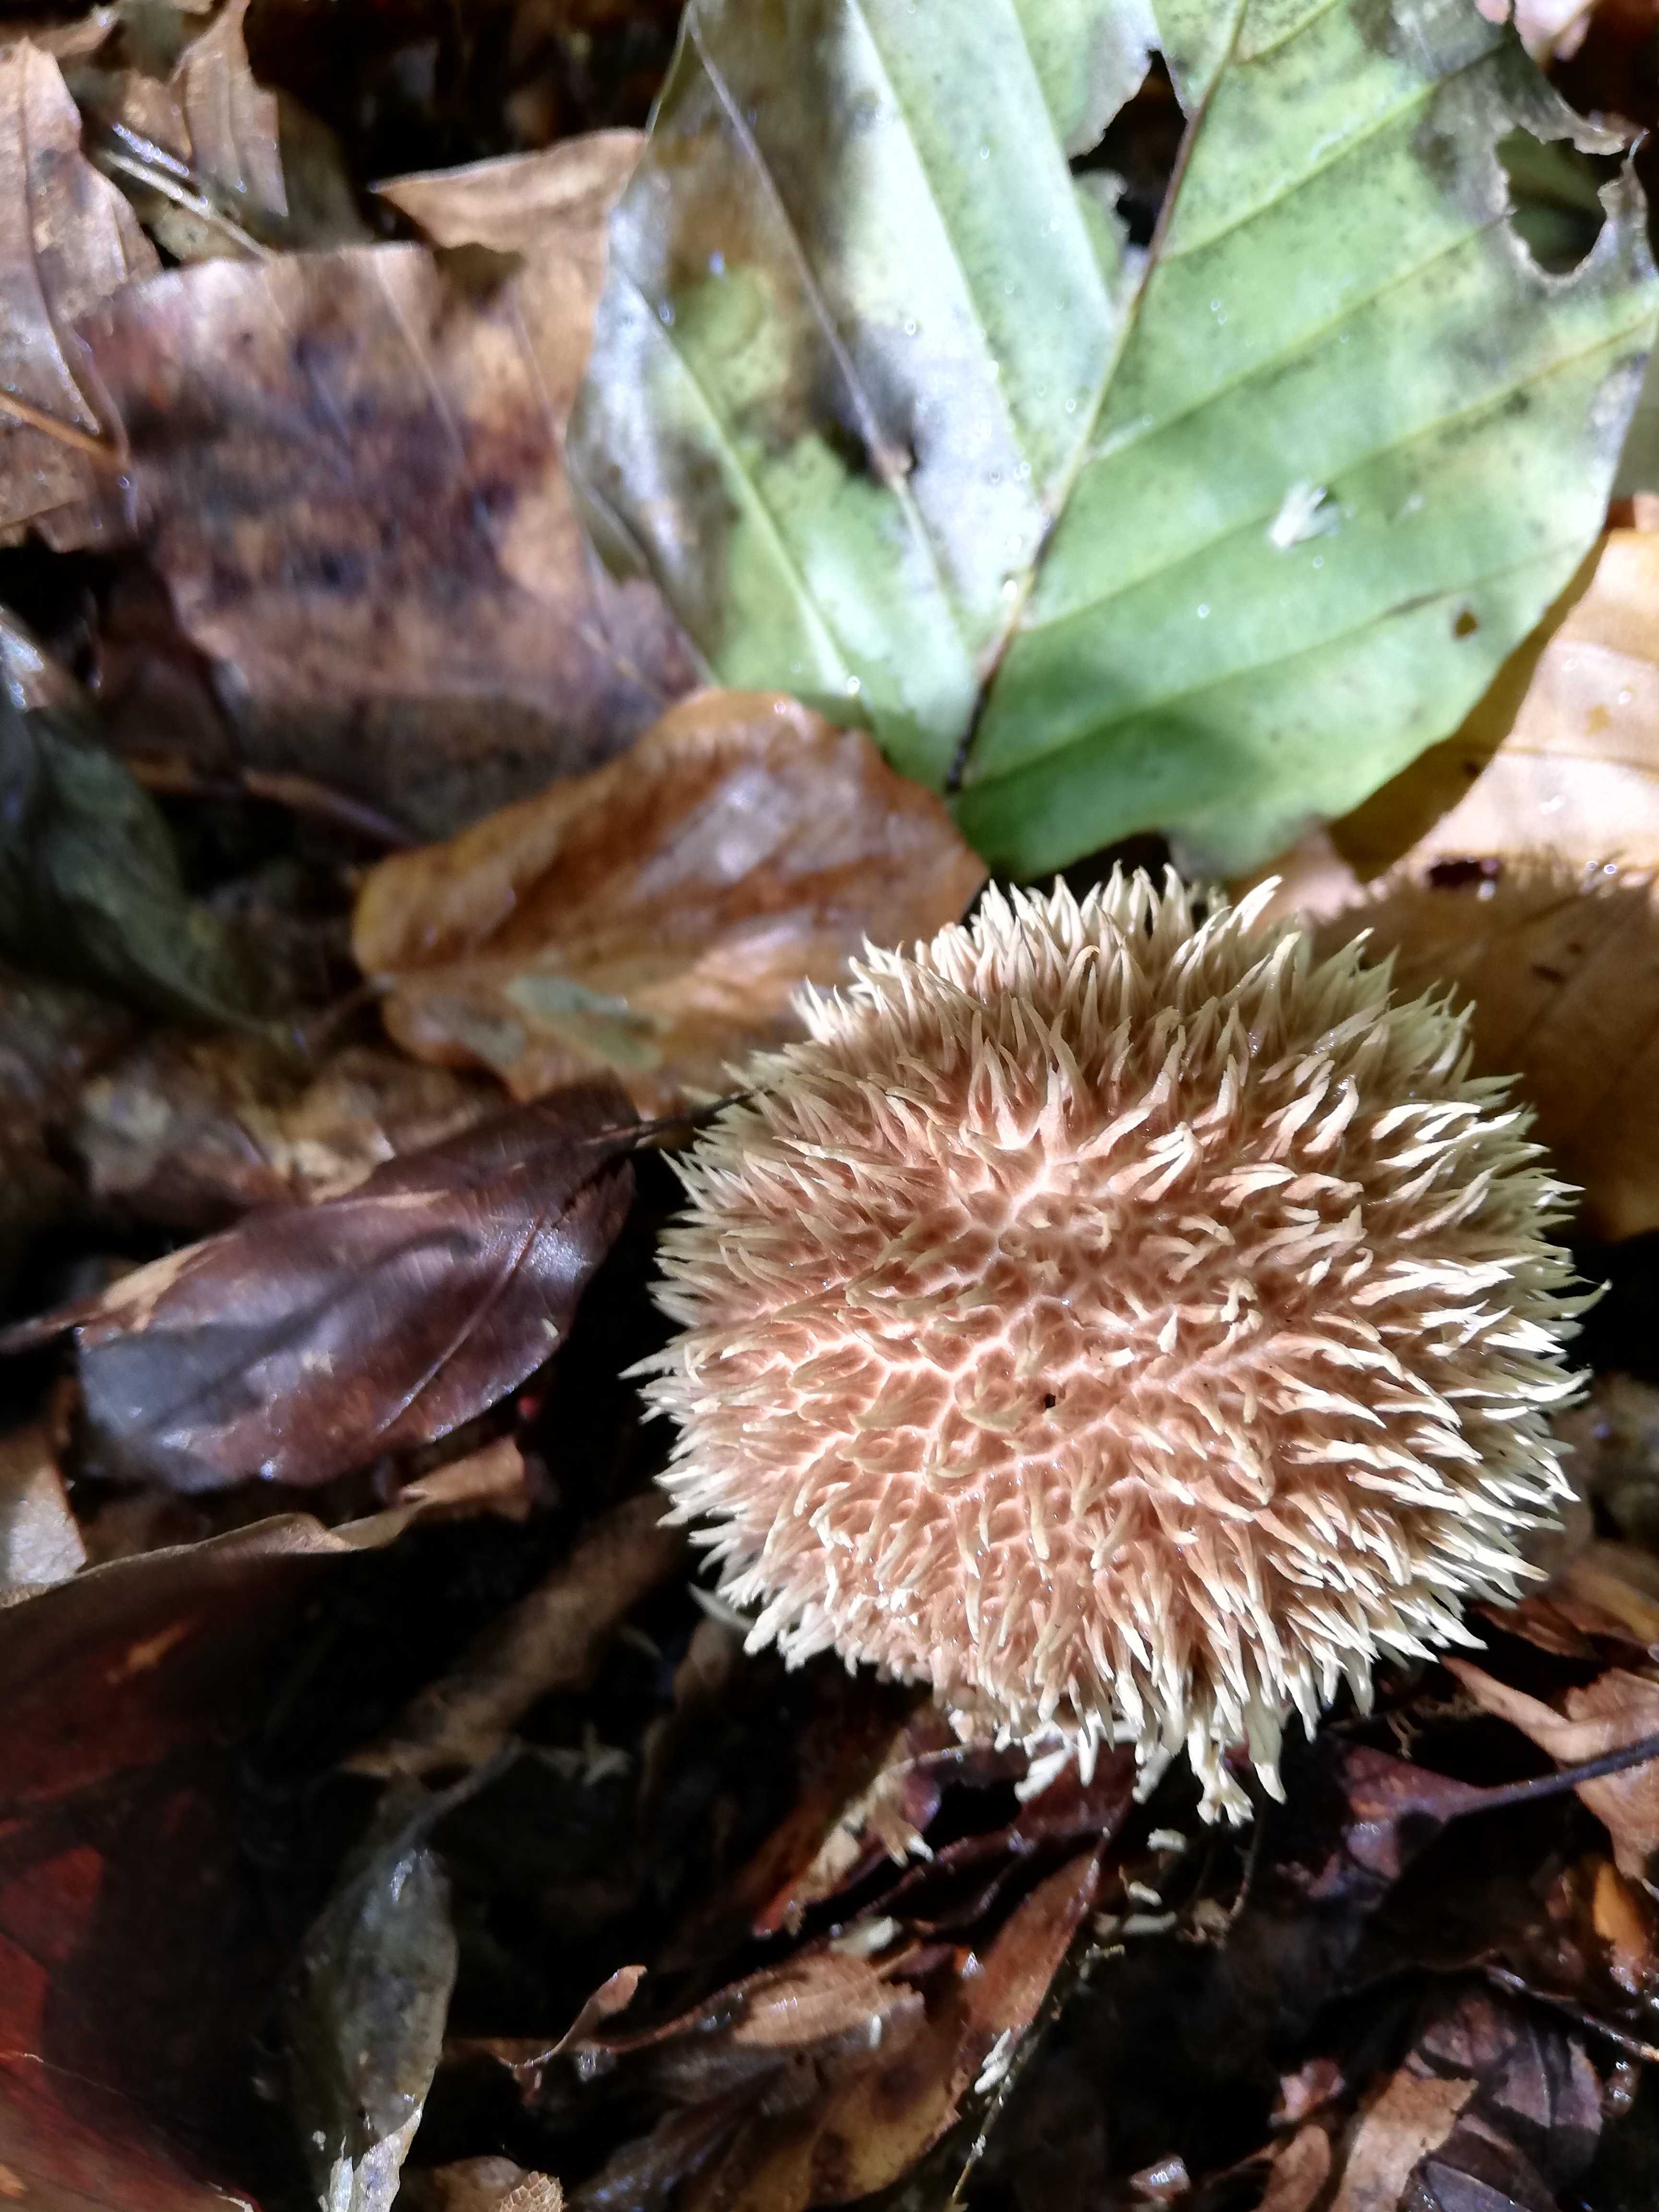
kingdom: Fungi
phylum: Basidiomycota
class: Agaricomycetes
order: Agaricales
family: Lycoperdaceae
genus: Lycoperdon
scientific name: Lycoperdon echinatum
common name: pindsvine-støvbold
